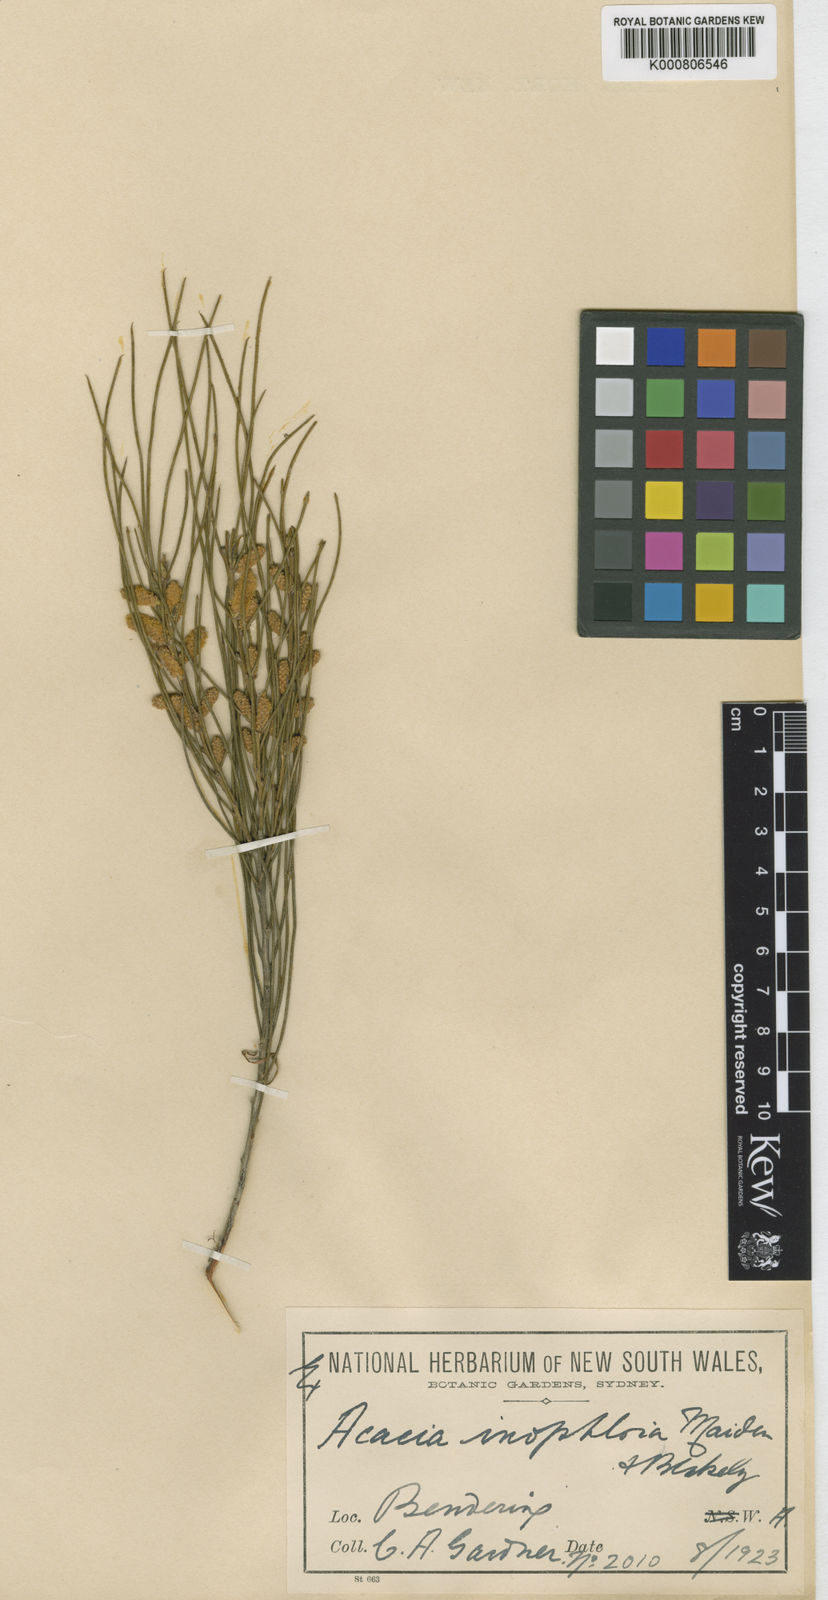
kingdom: Plantae
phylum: Tracheophyta
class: Magnoliopsida
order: Fabales
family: Fabaceae
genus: Acacia
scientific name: Acacia inophloia
